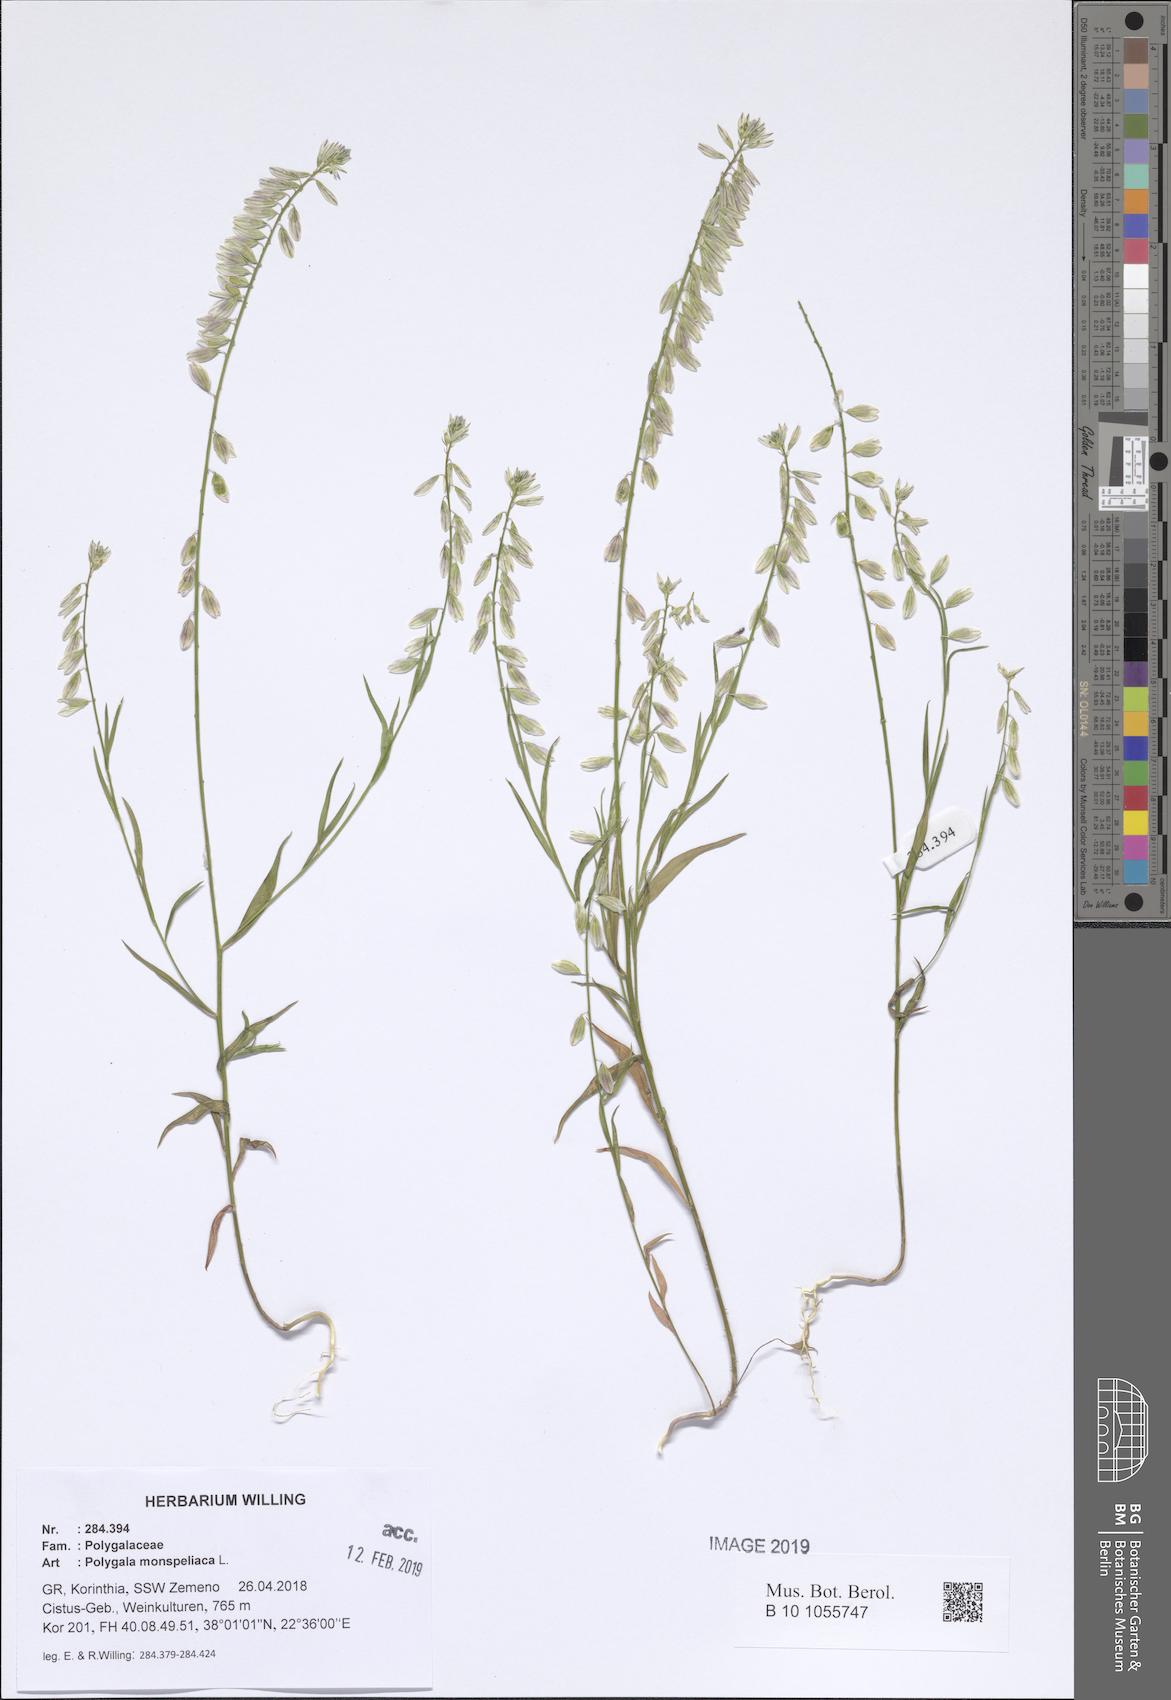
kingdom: Plantae
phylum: Tracheophyta
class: Magnoliopsida
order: Fabales
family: Polygalaceae
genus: Polygala
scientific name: Polygala monspeliaca
